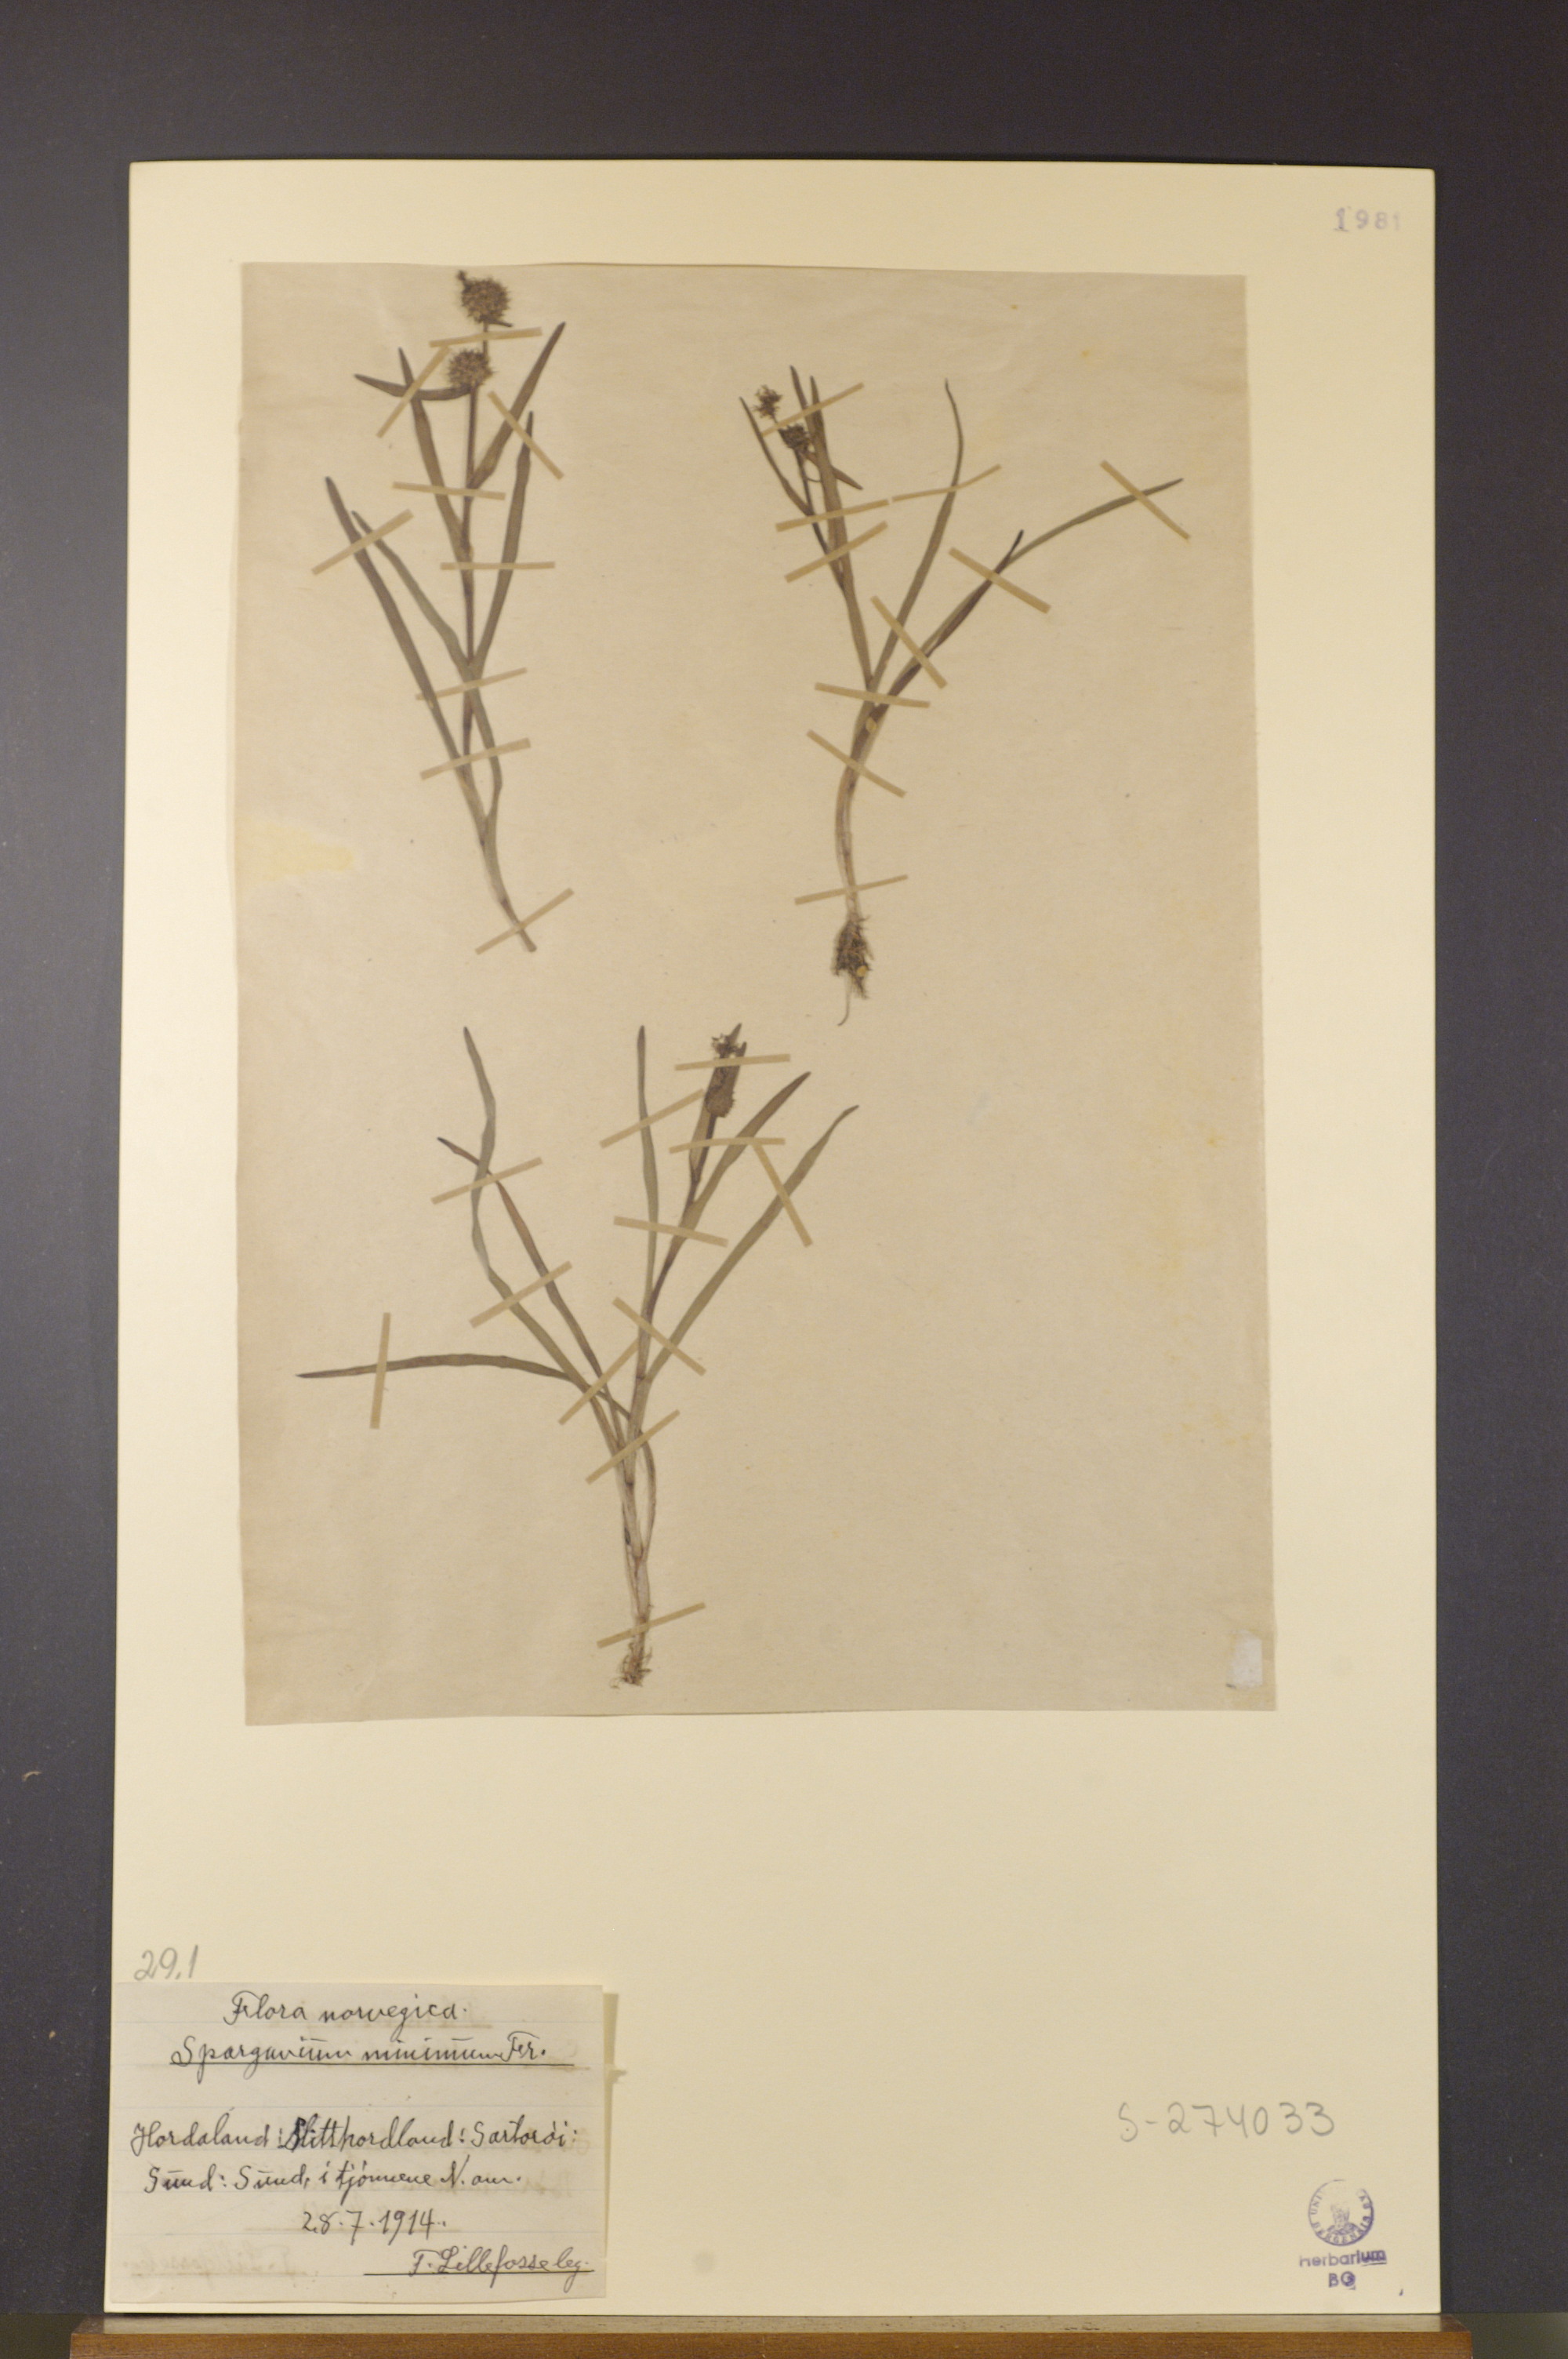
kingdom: Plantae
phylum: Tracheophyta
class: Liliopsida
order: Poales
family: Typhaceae
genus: Sparganium
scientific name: Sparganium natans
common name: Least bur-reed
